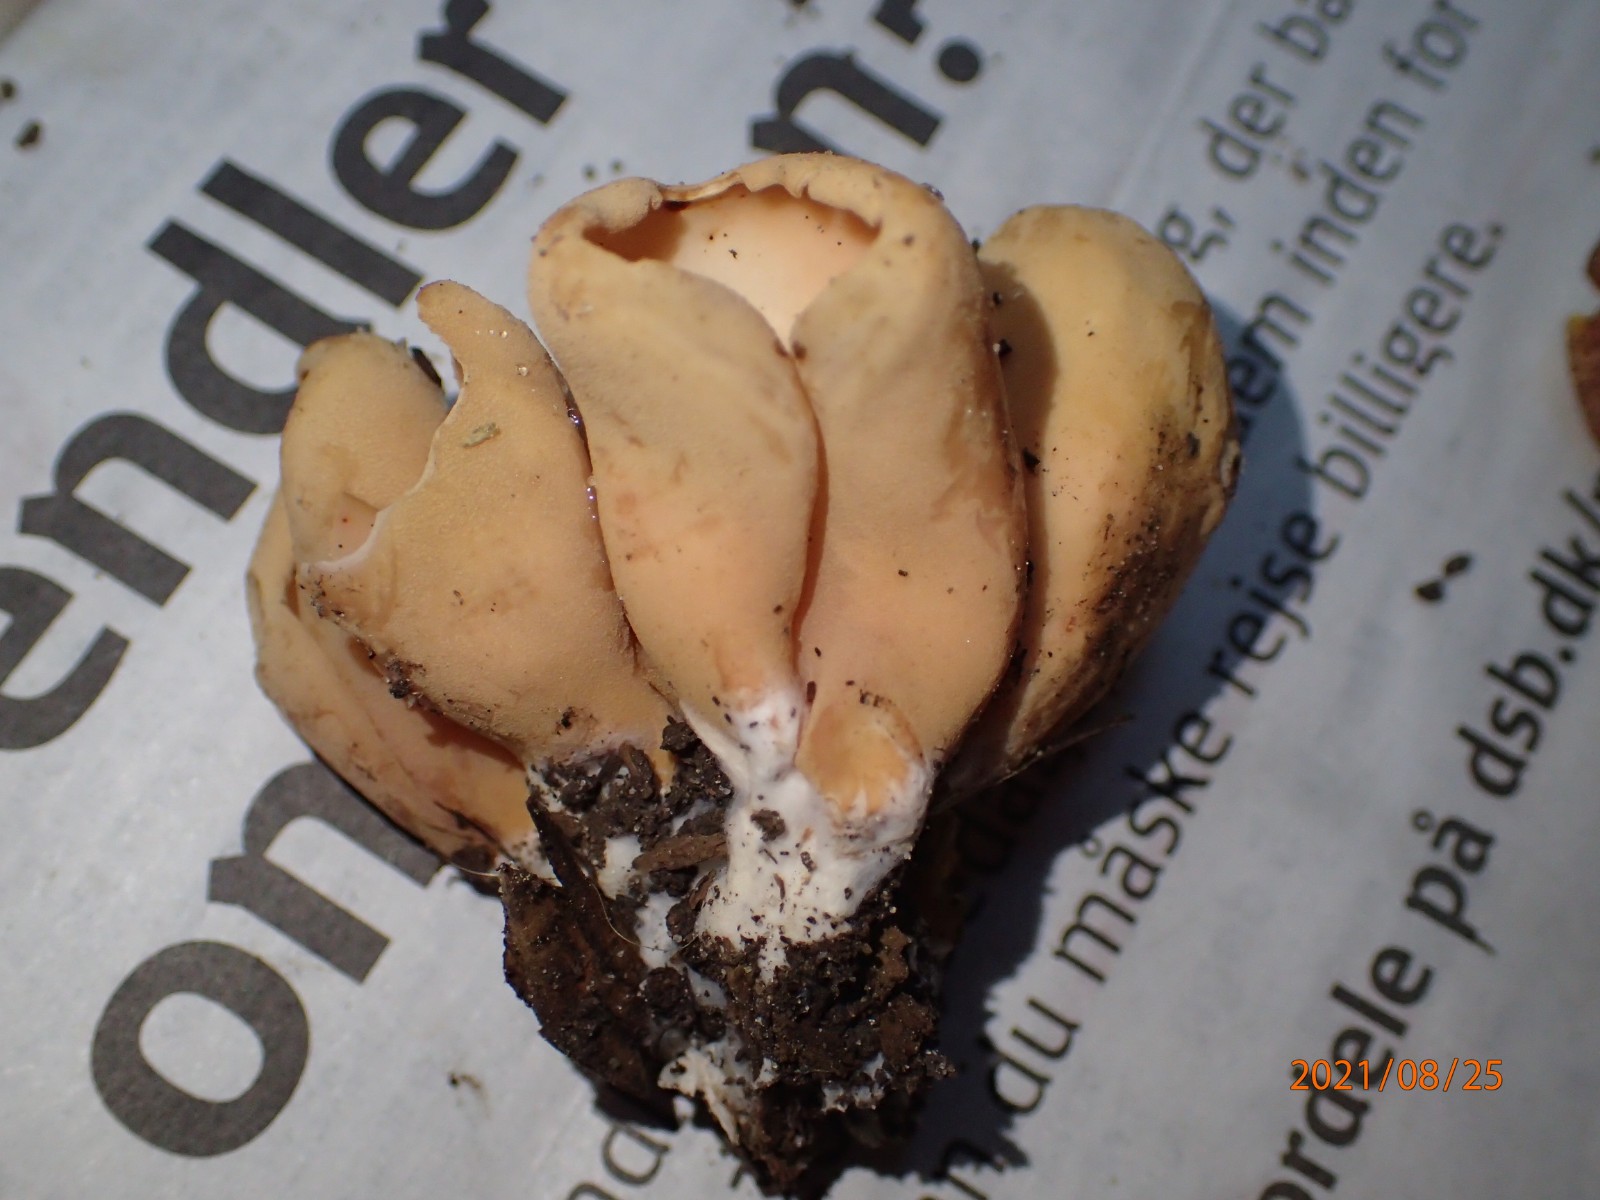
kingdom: Fungi
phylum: Ascomycota
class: Pezizomycetes
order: Pezizales
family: Otideaceae
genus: Otidea
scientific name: Otidea onotica
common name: æsel-ørebæger
